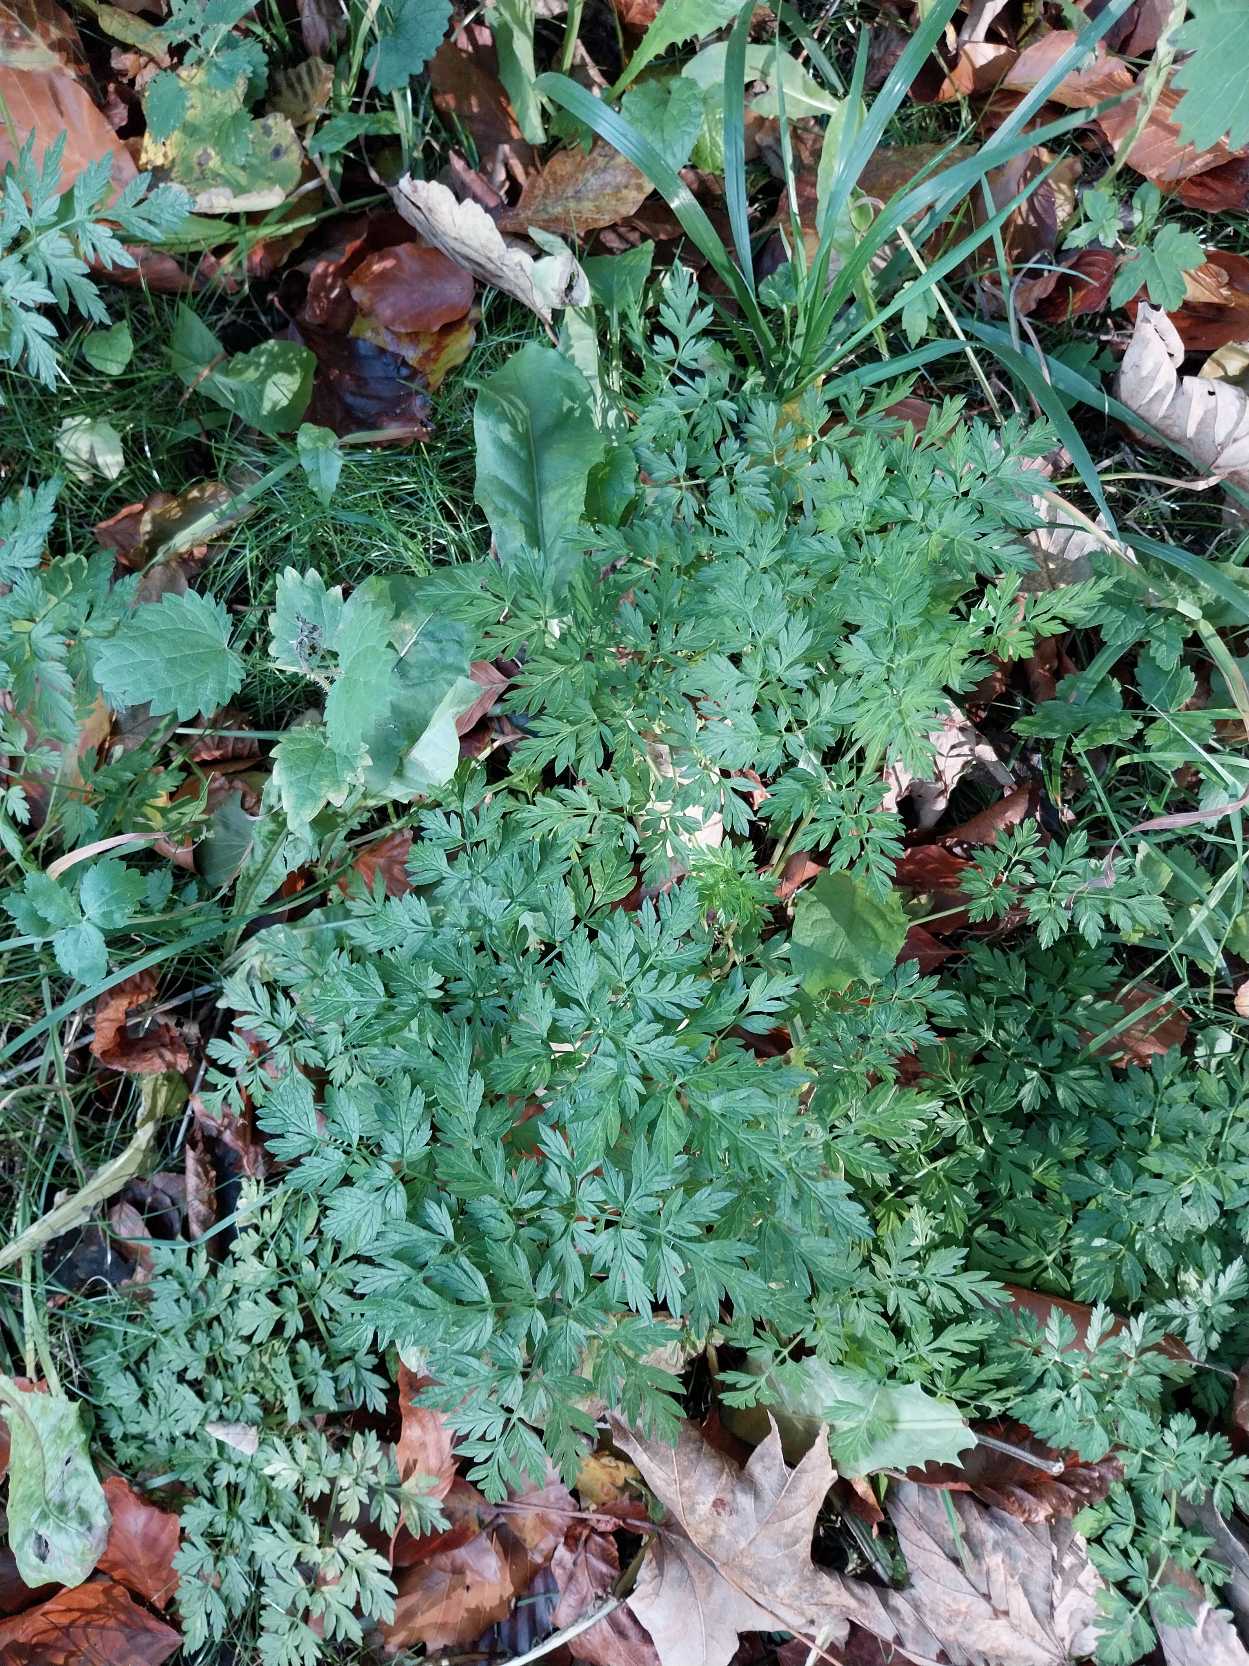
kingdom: Plantae
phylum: Tracheophyta
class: Magnoliopsida
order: Apiales
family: Apiaceae
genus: Anthriscus
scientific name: Anthriscus sylvestris
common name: Vild kørvel
